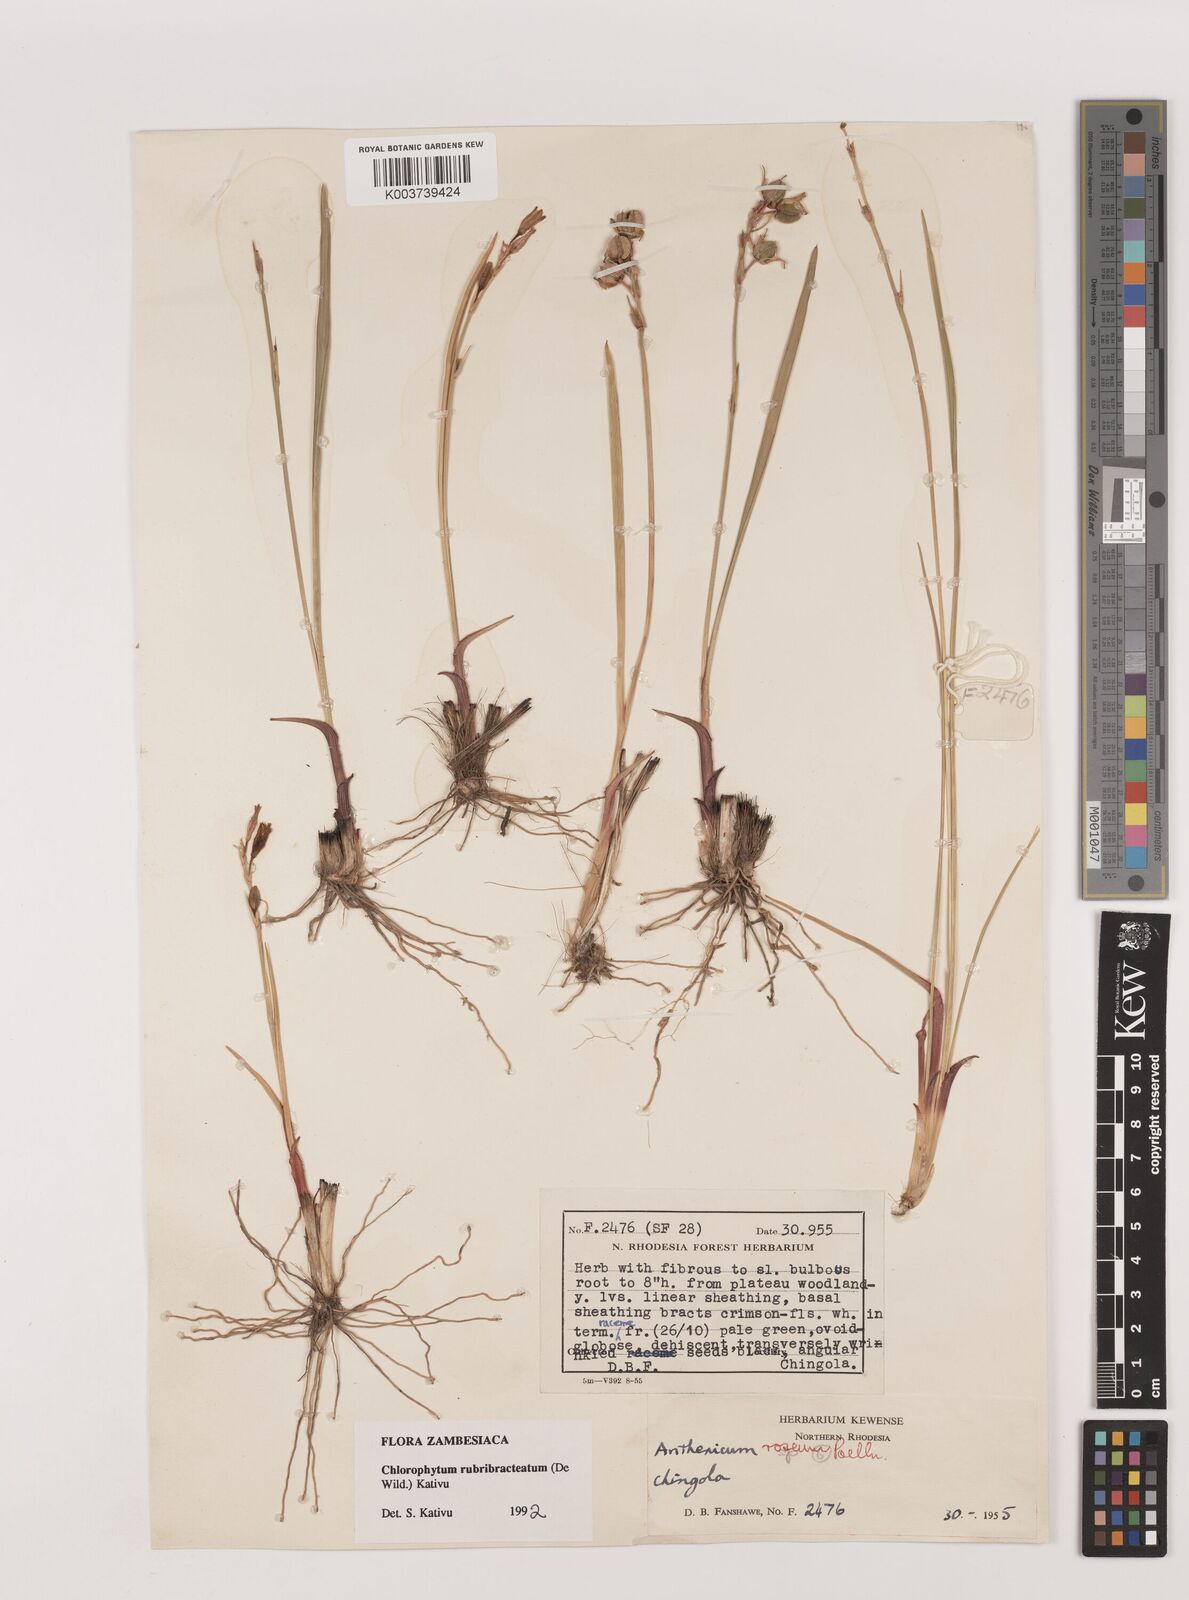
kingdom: Plantae
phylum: Tracheophyta
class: Liliopsida
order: Asparagales
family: Asparagaceae
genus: Chlorophytum
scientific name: Chlorophytum rubribracteatum
